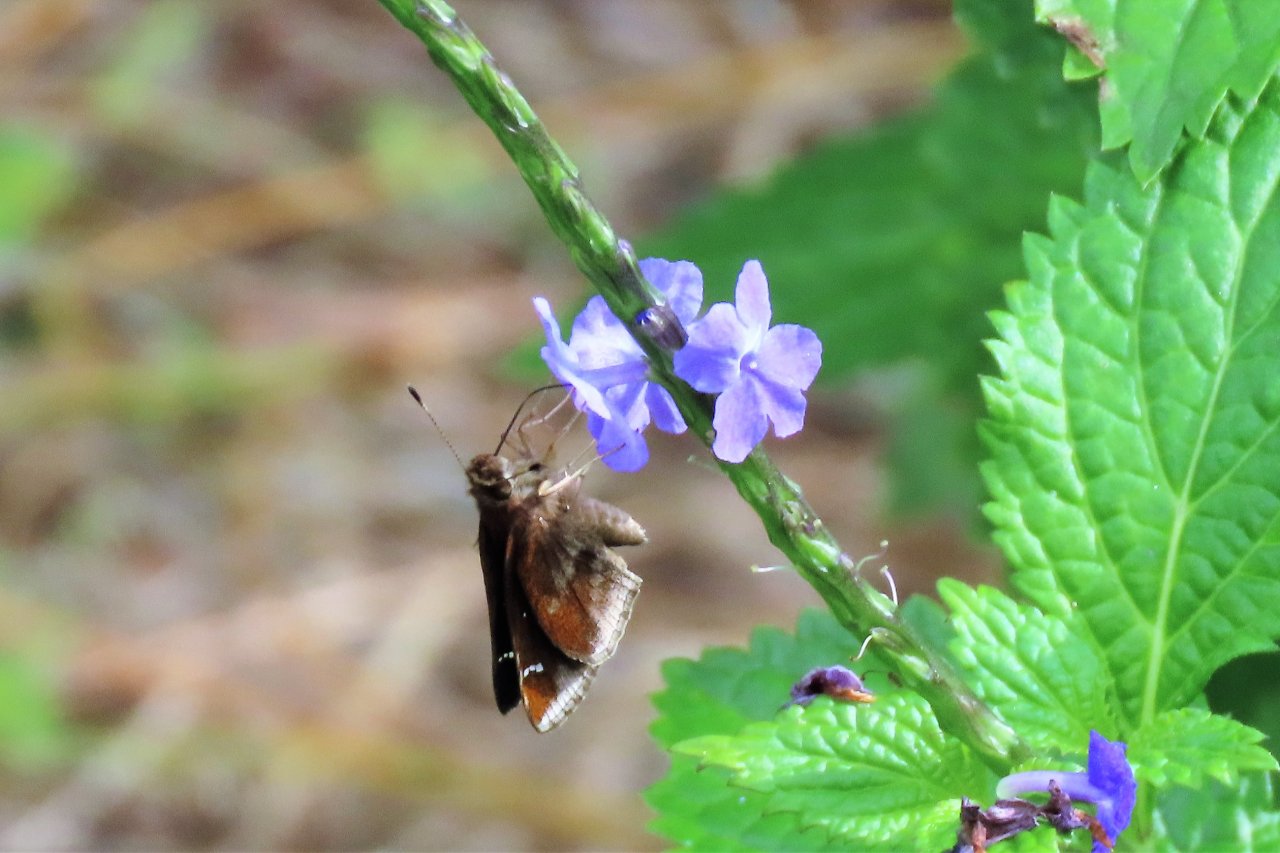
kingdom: Animalia
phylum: Arthropoda
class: Insecta
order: Lepidoptera
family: Hesperiidae
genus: Lerema
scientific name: Lerema accius
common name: Clouded Skipper
